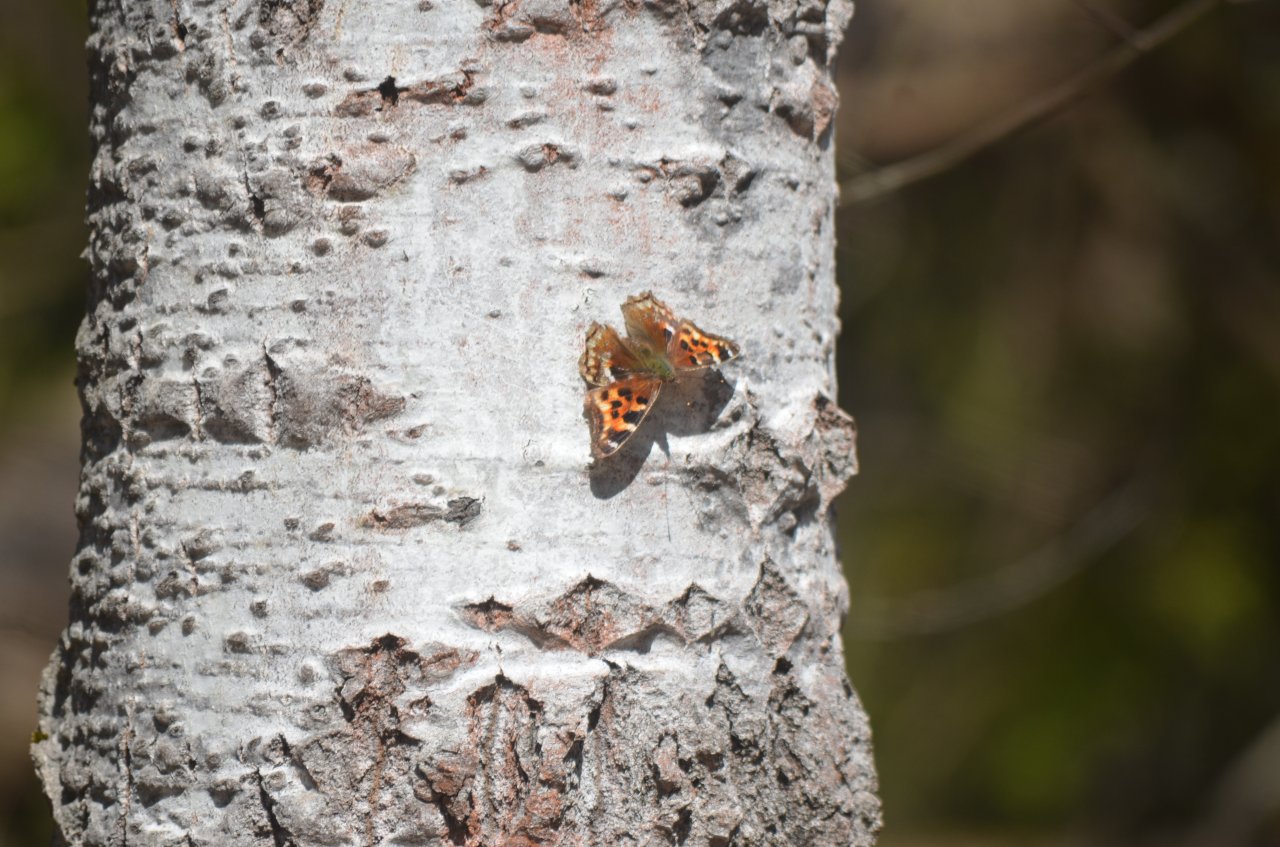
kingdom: Animalia
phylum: Arthropoda
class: Insecta
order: Lepidoptera
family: Nymphalidae
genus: Polygonia
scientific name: Polygonia vaualbum
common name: Compton Tortoiseshell
